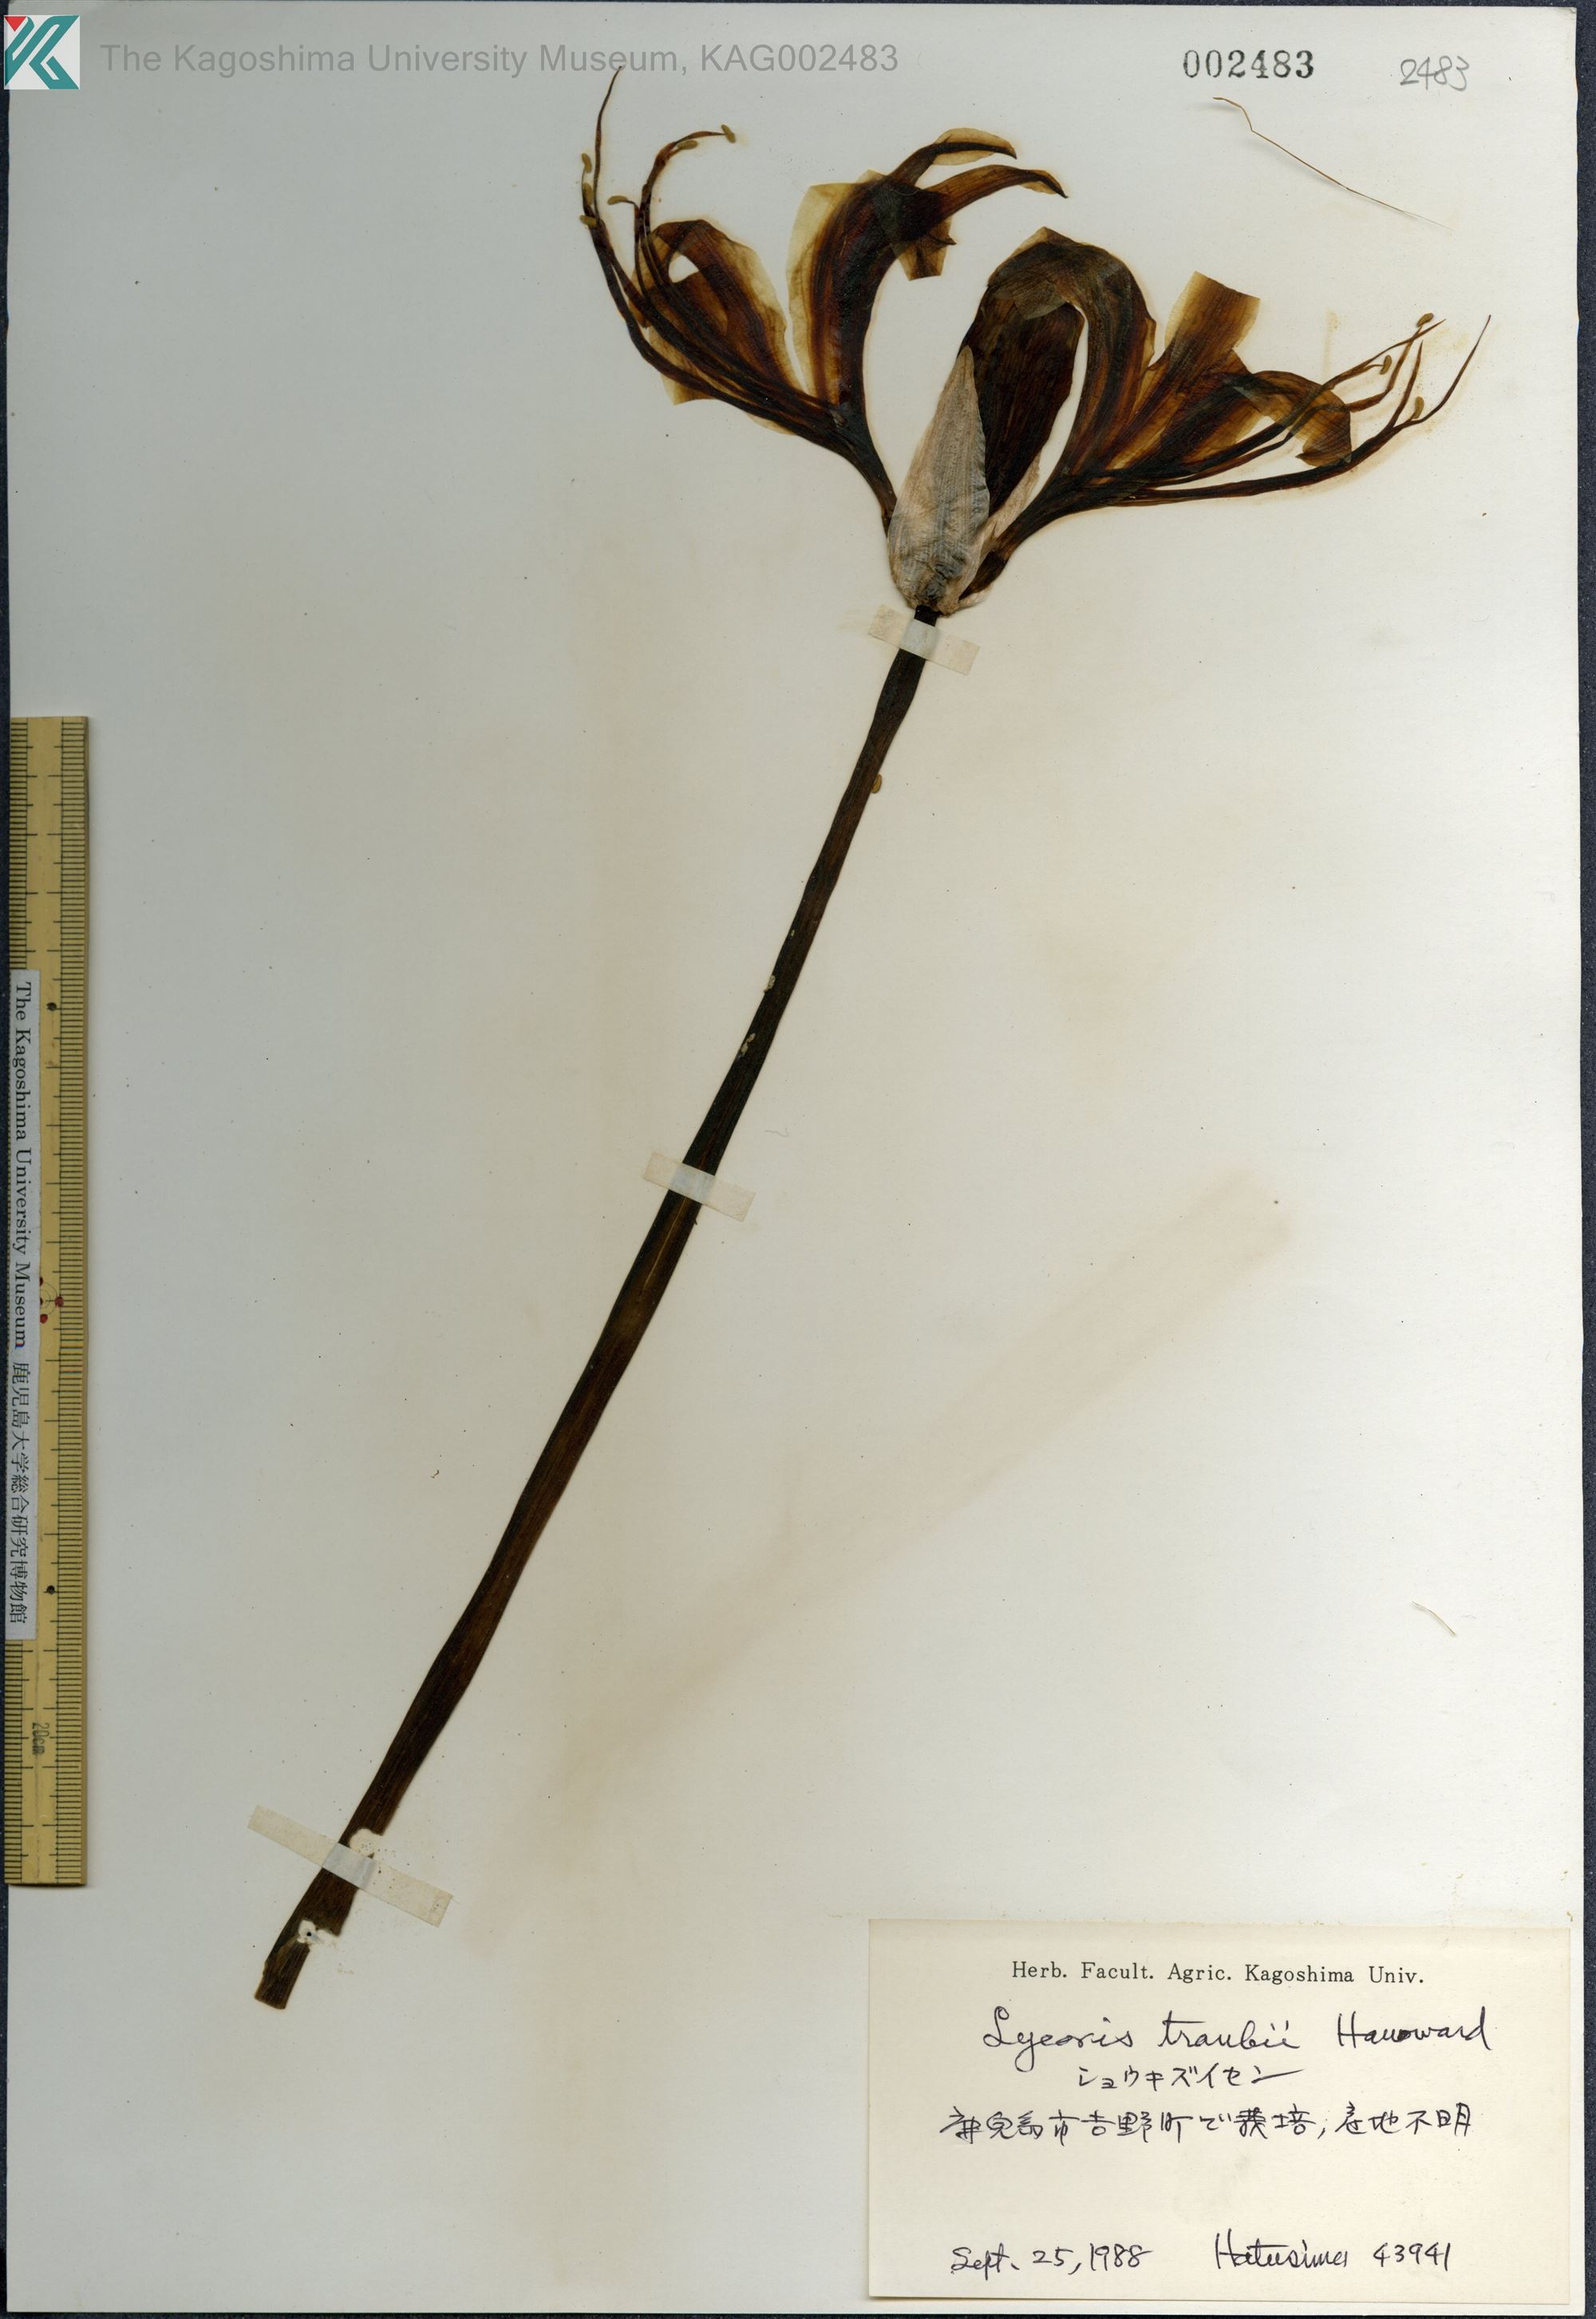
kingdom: Plantae
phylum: Tracheophyta
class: Liliopsida
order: Asparagales
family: Amaryllidaceae
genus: Lycoris
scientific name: Lycoris traubii
